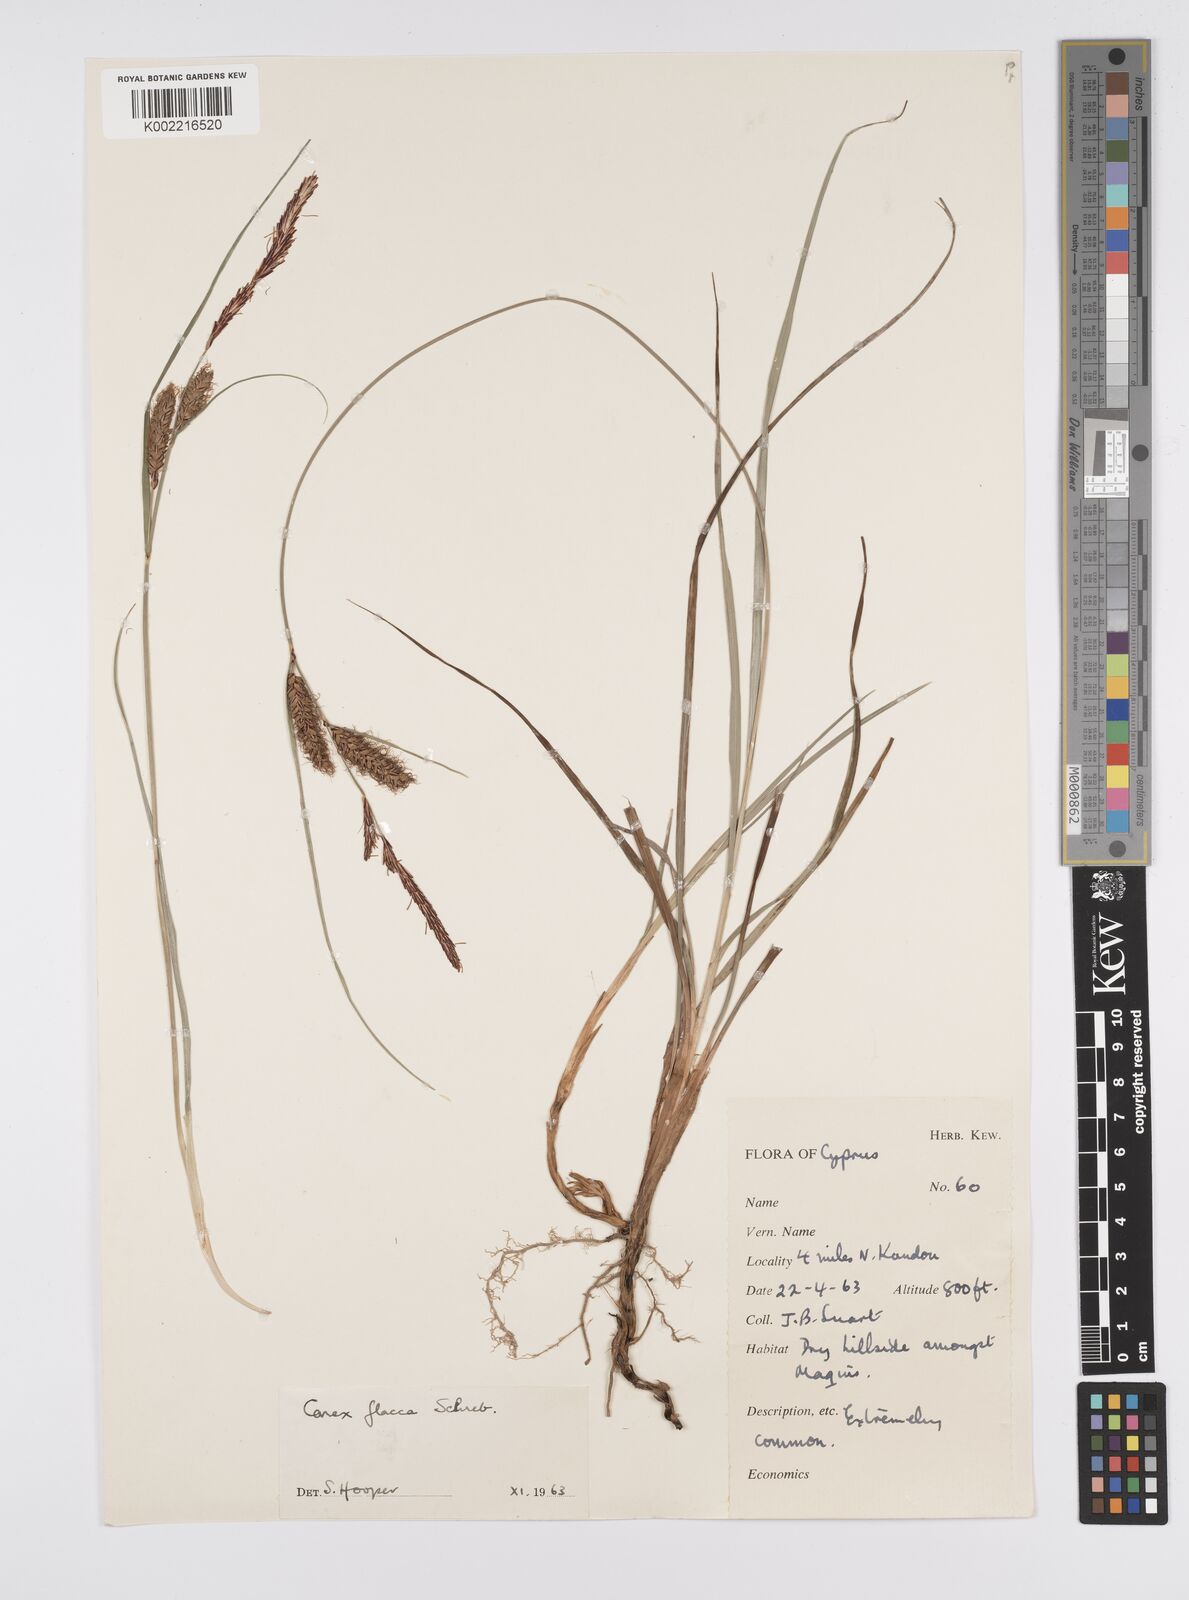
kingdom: Plantae
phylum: Tracheophyta
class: Liliopsida
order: Poales
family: Cyperaceae
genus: Carex
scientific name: Carex flacca
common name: Glaucous sedge
